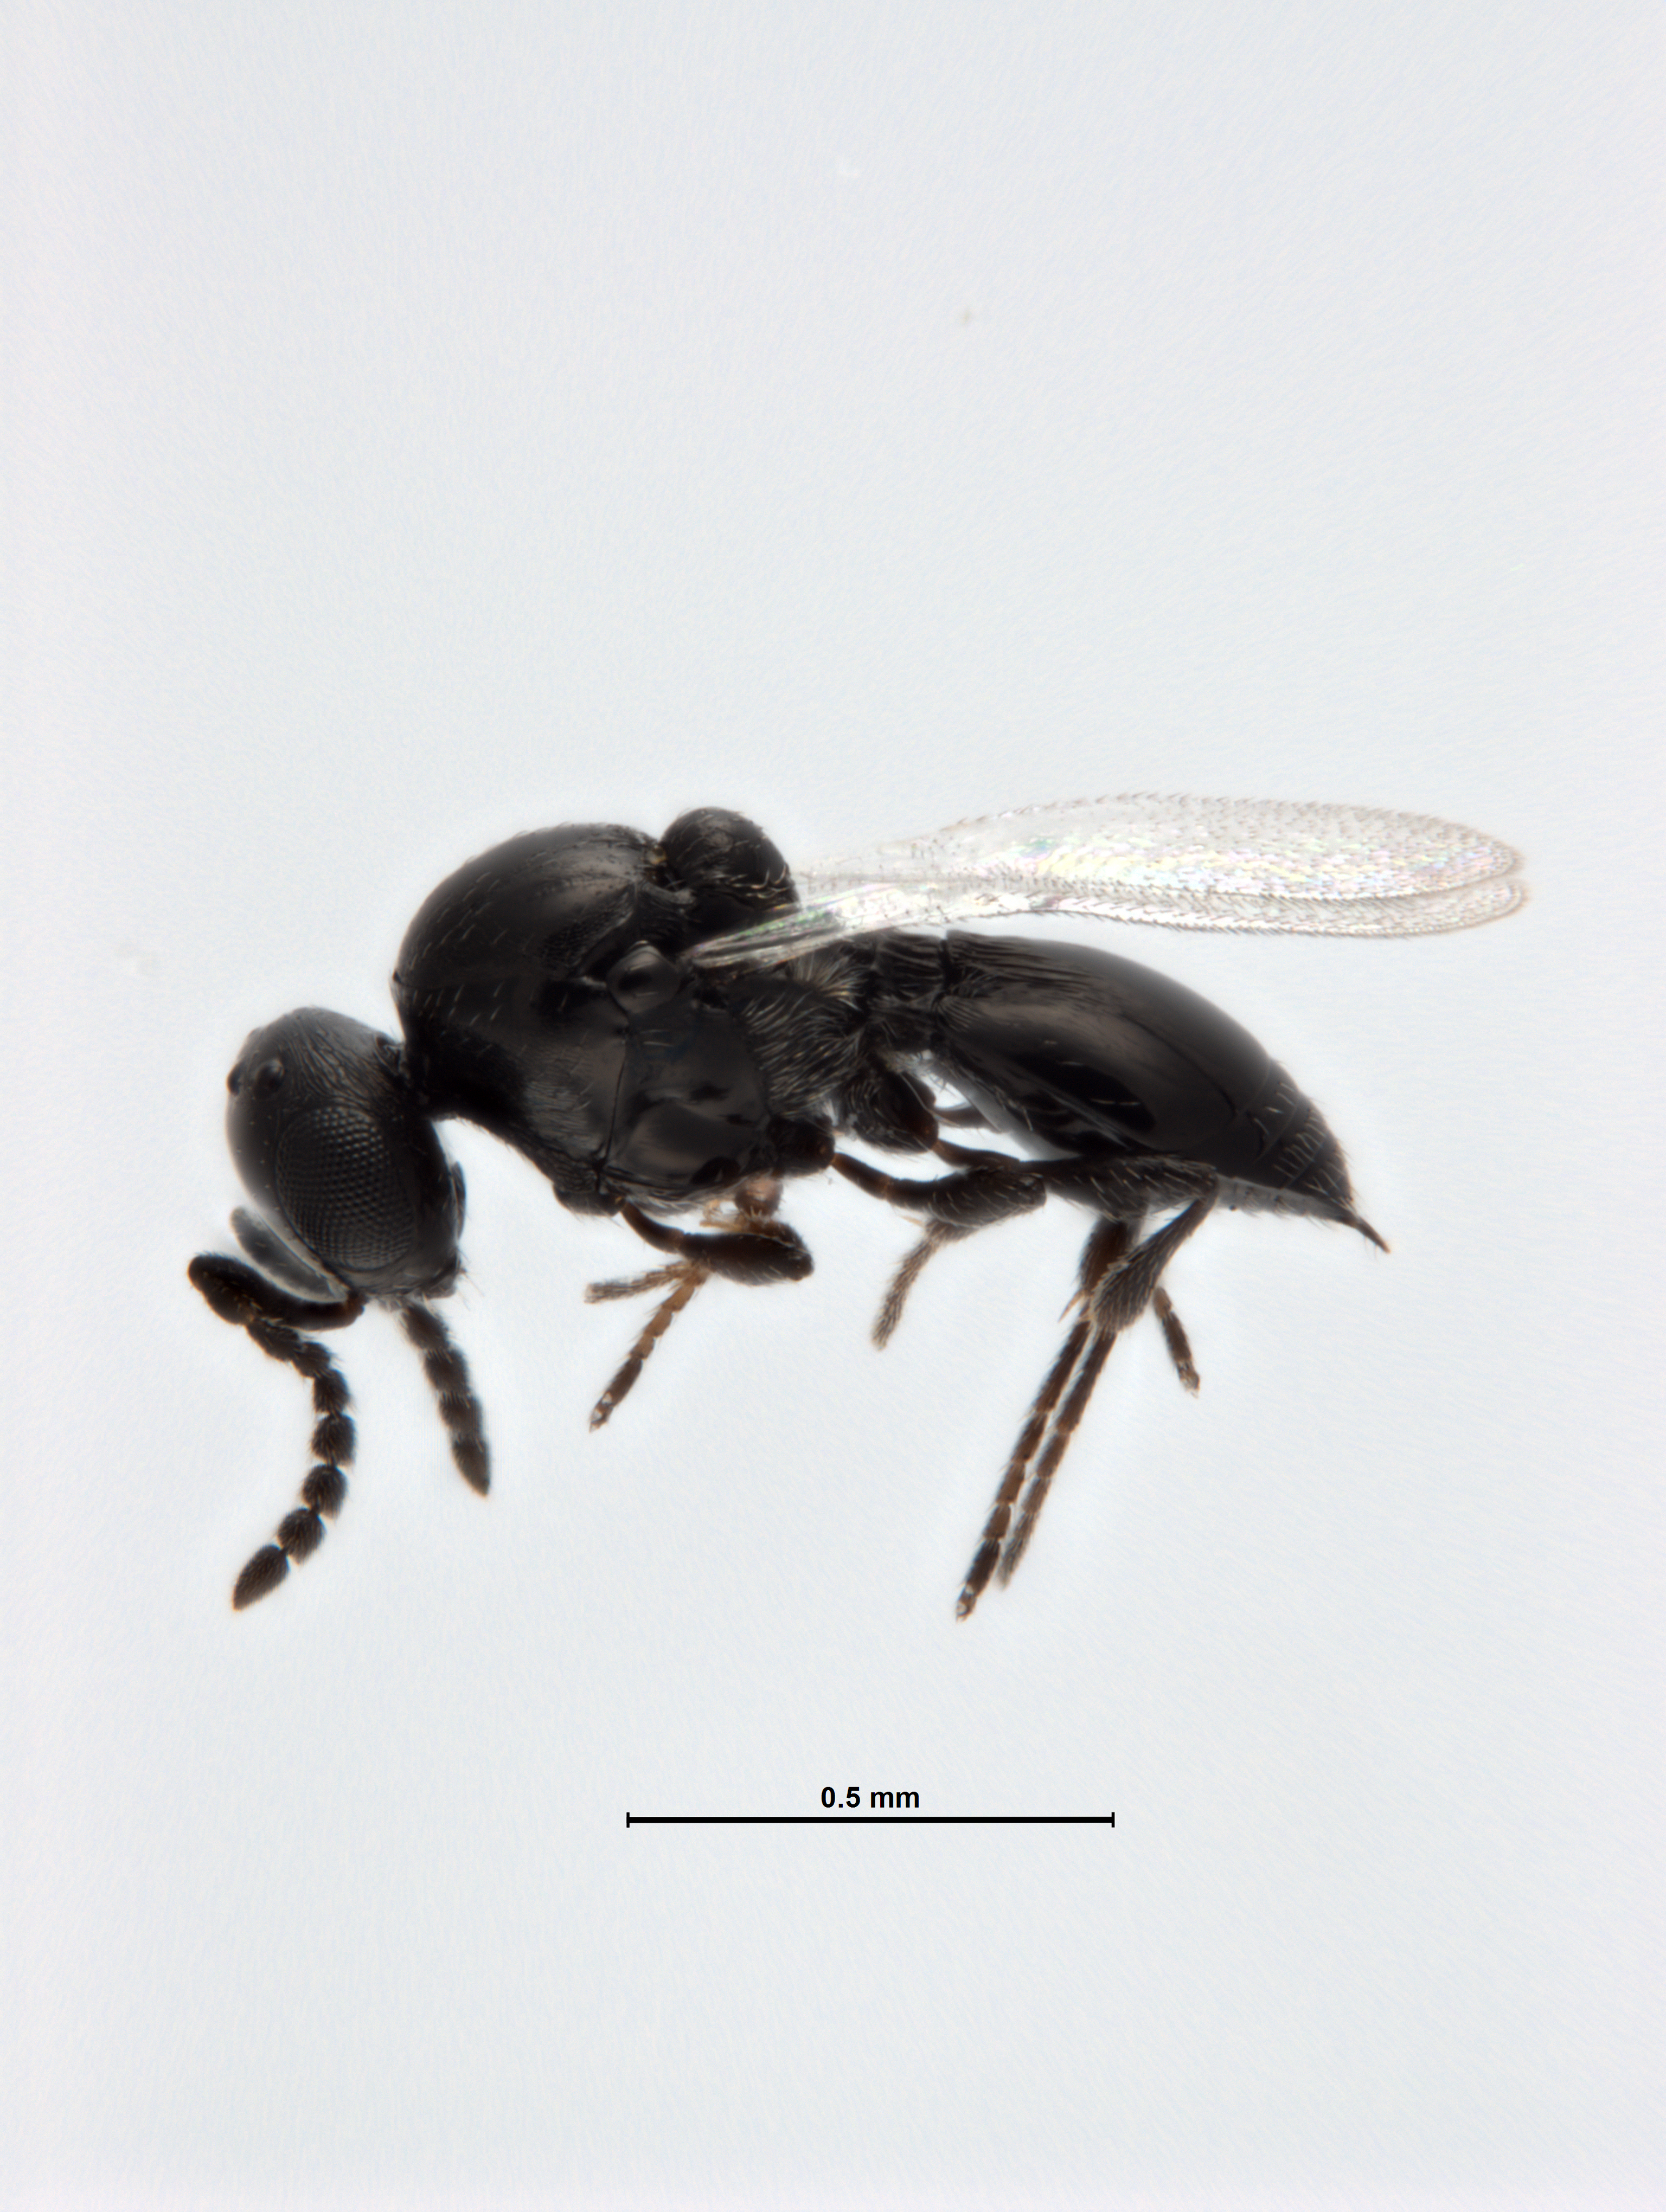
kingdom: Animalia
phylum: Arthropoda
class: Insecta
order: Hymenoptera
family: Platygastridae
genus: Platygaster
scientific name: Platygaster robiniae
